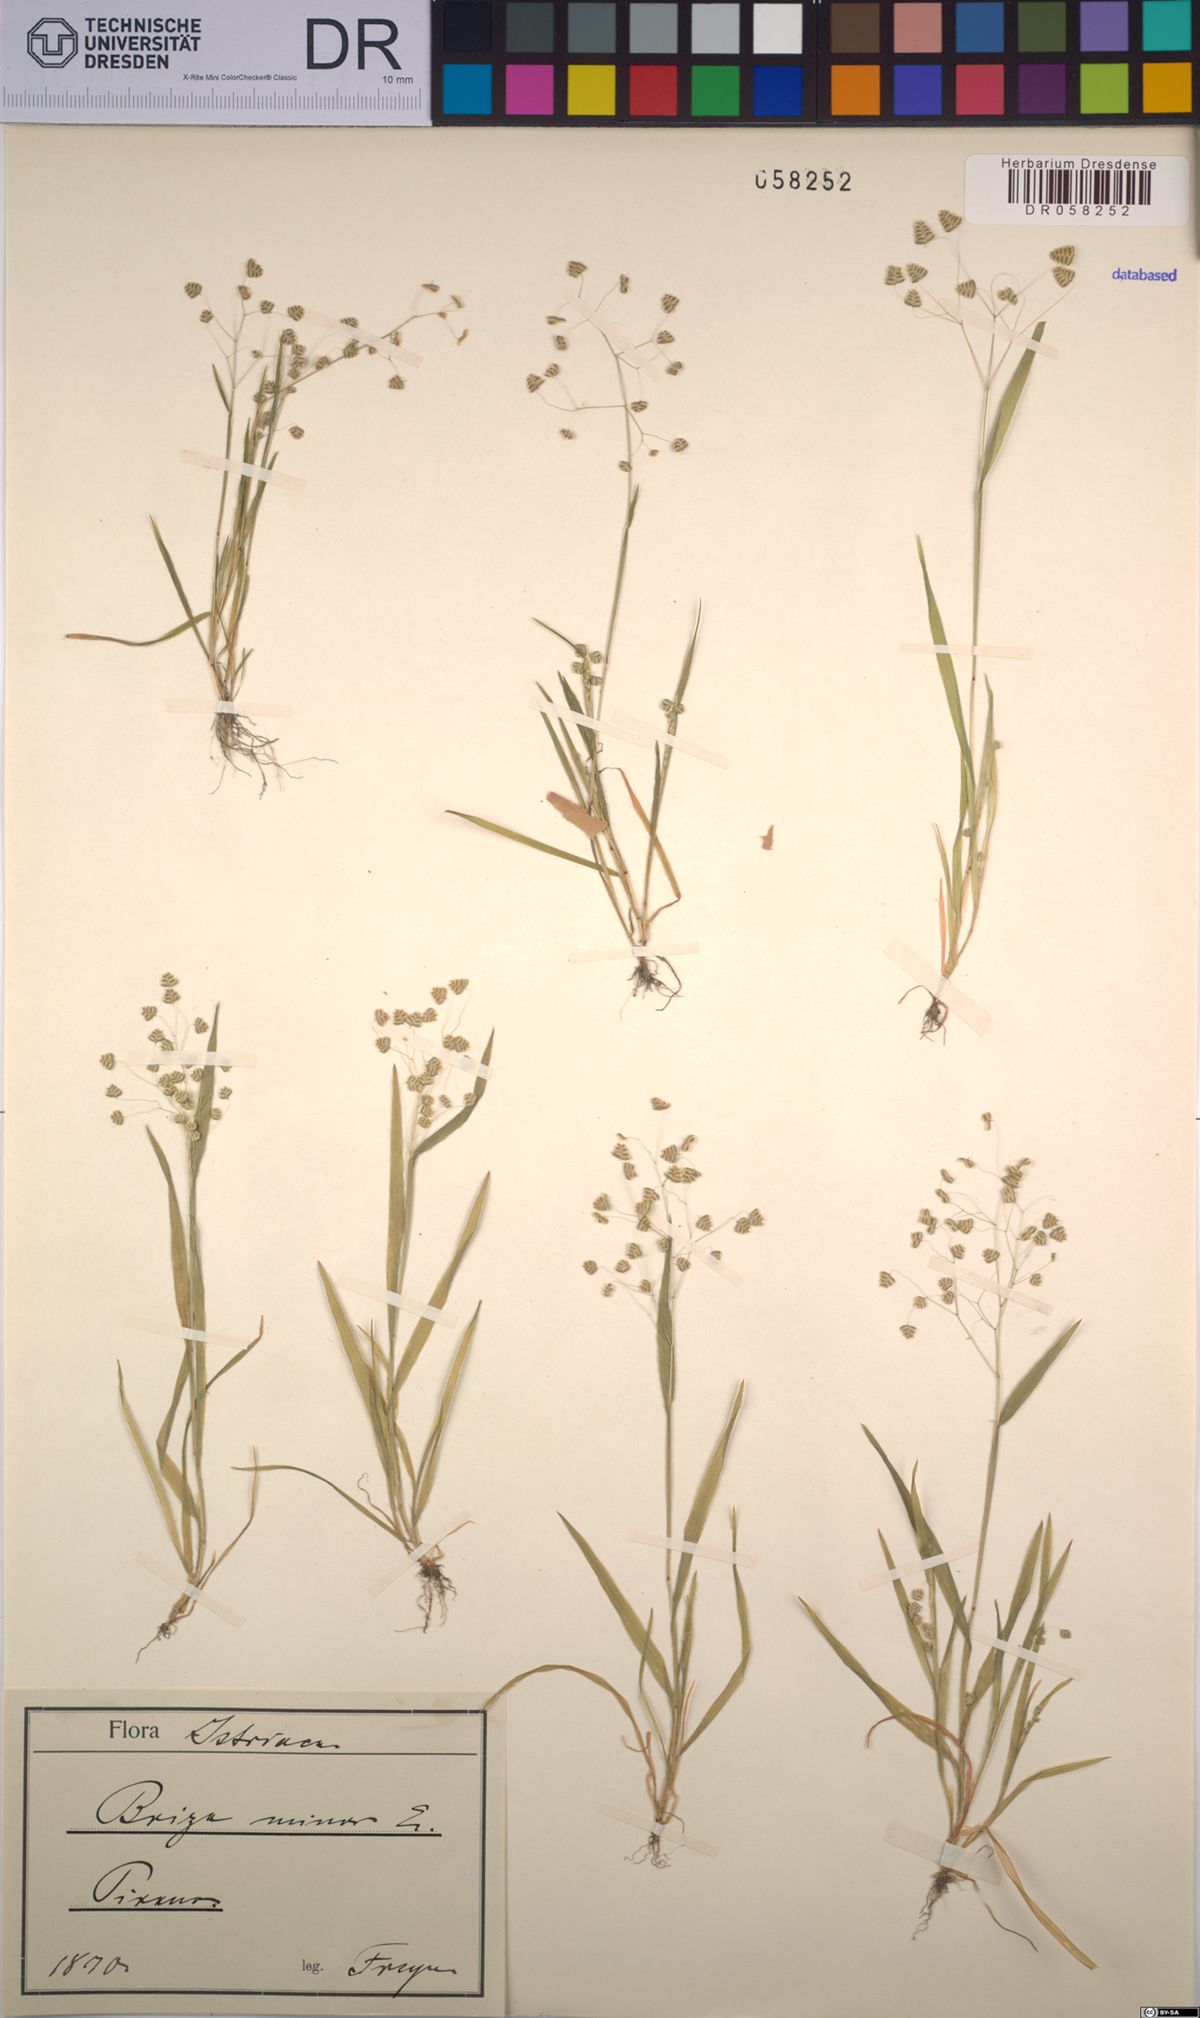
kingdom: Plantae
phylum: Tracheophyta
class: Liliopsida
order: Poales
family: Poaceae
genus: Briza
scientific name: Briza minor
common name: Lesser quaking-grass
